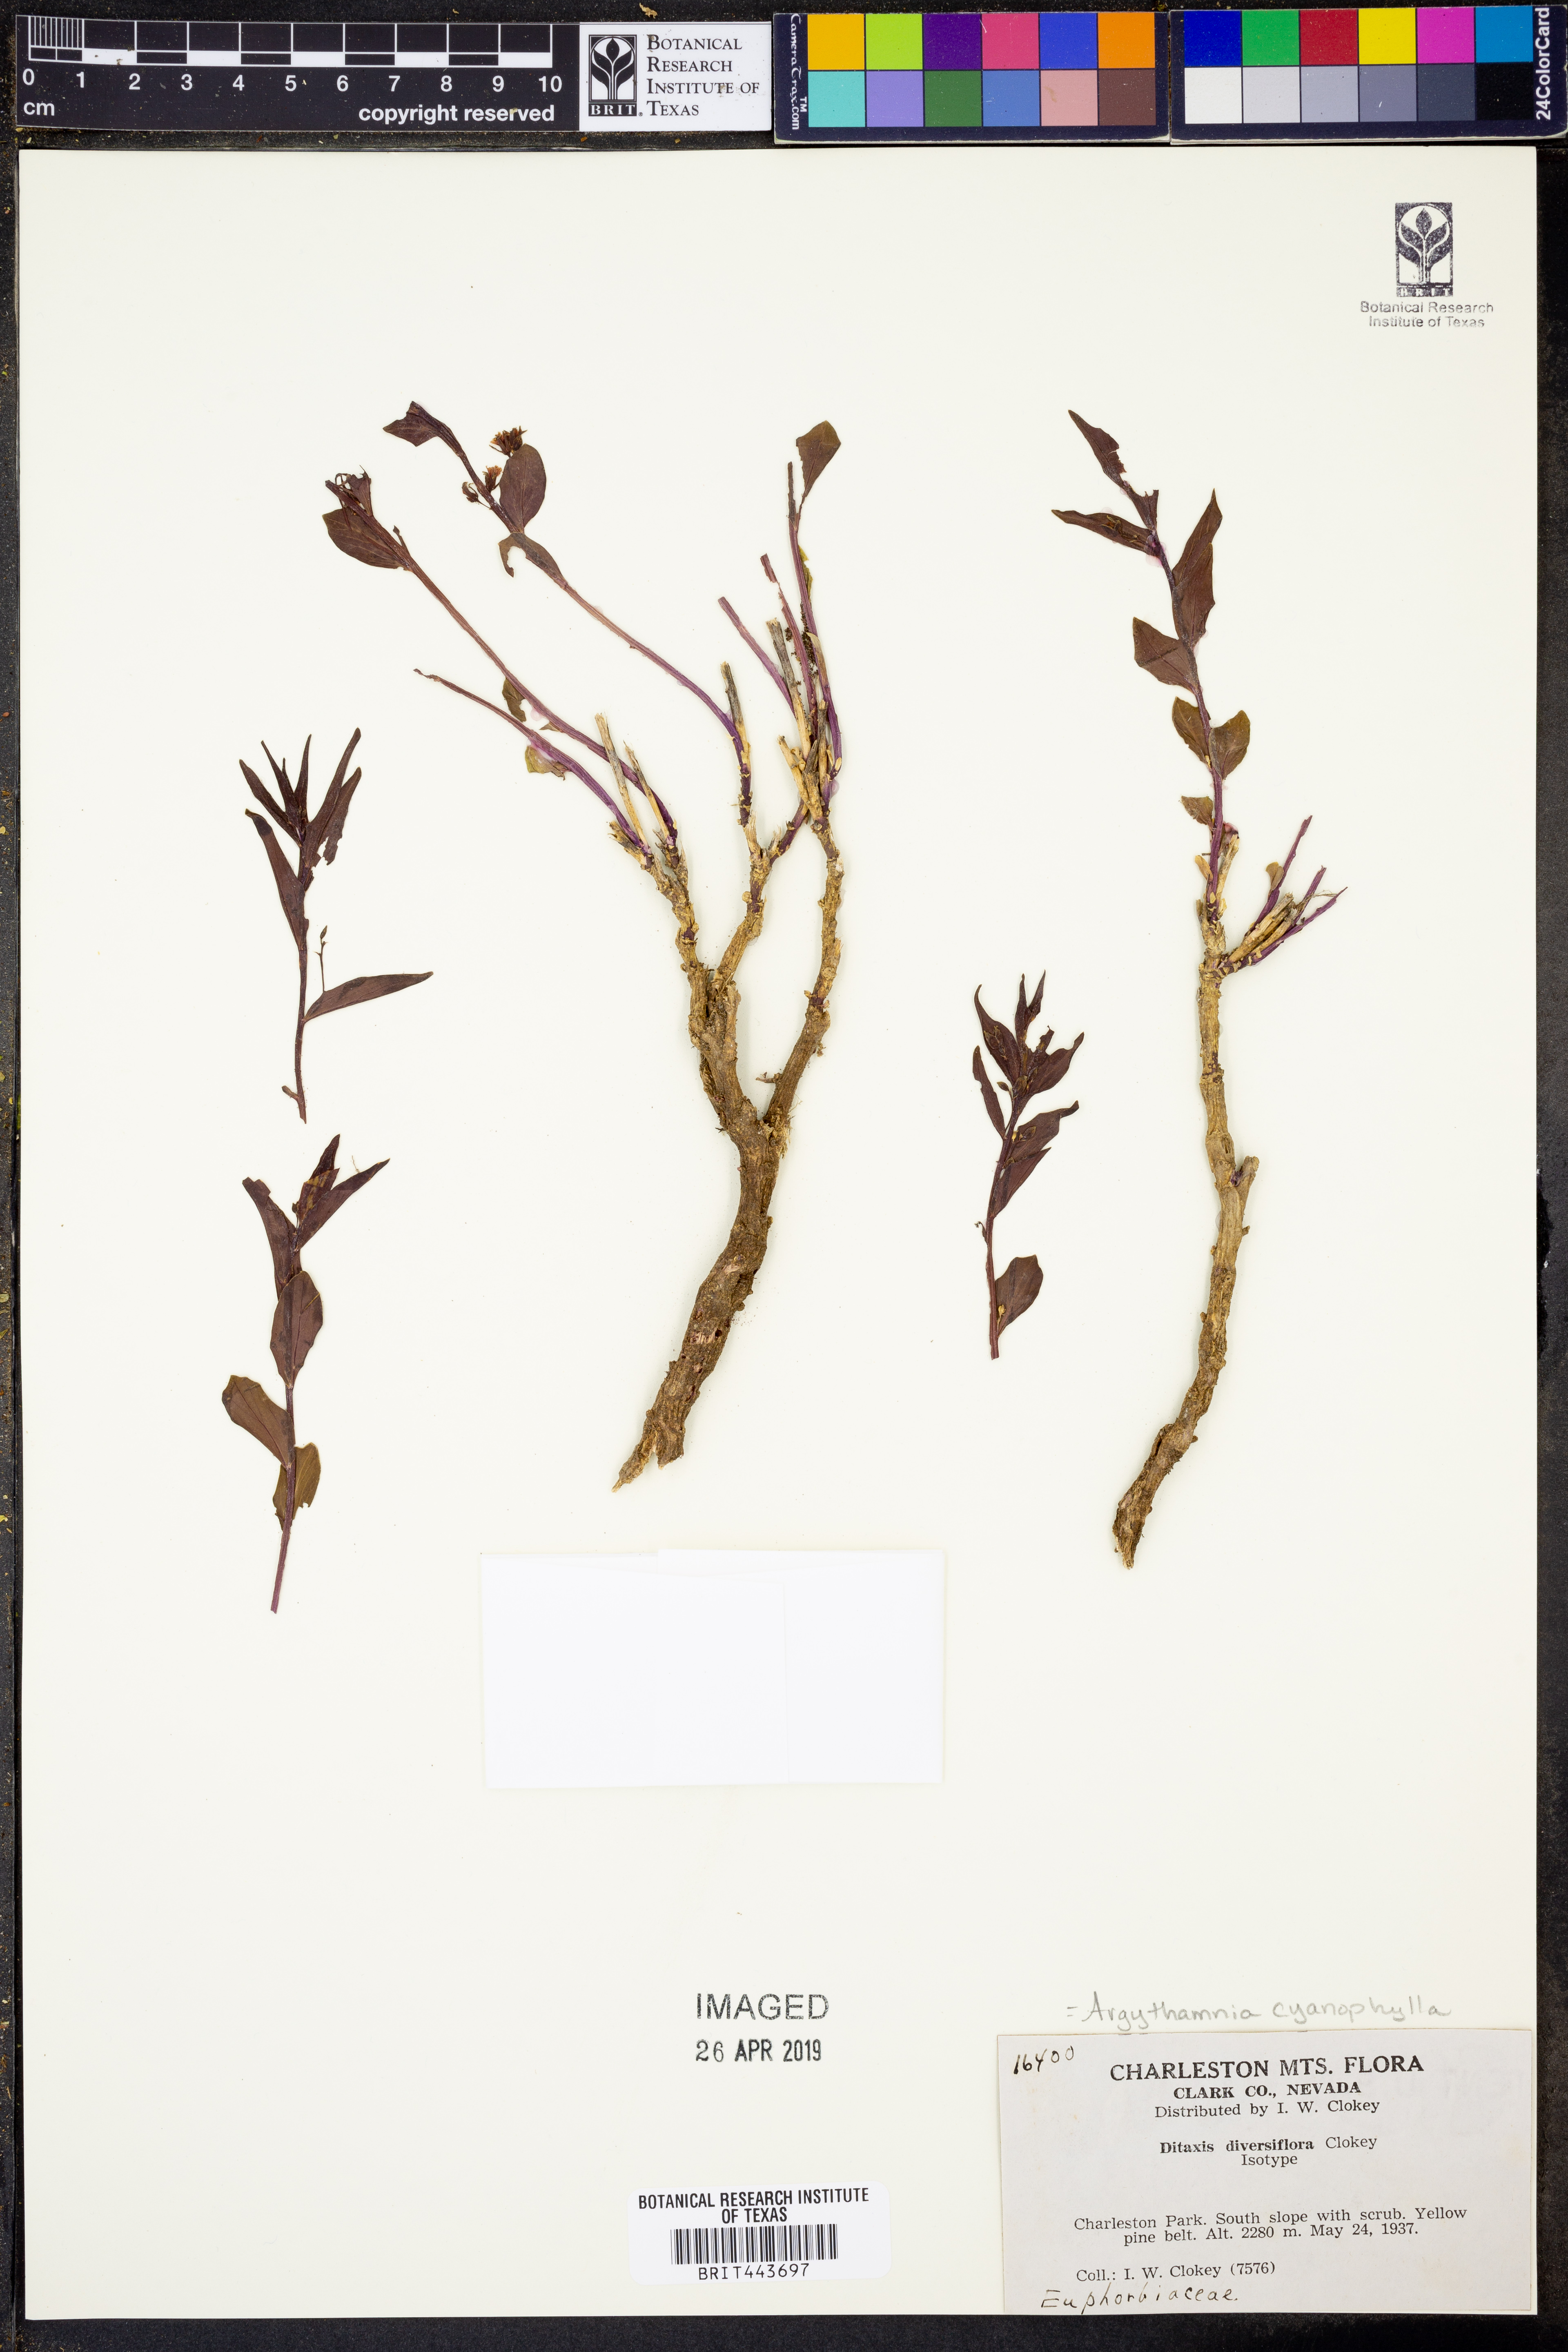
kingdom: Plantae
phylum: Tracheophyta
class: Magnoliopsida
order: Malpighiales
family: Euphorbiaceae
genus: Ditaxis
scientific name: Ditaxis cyanophylla
